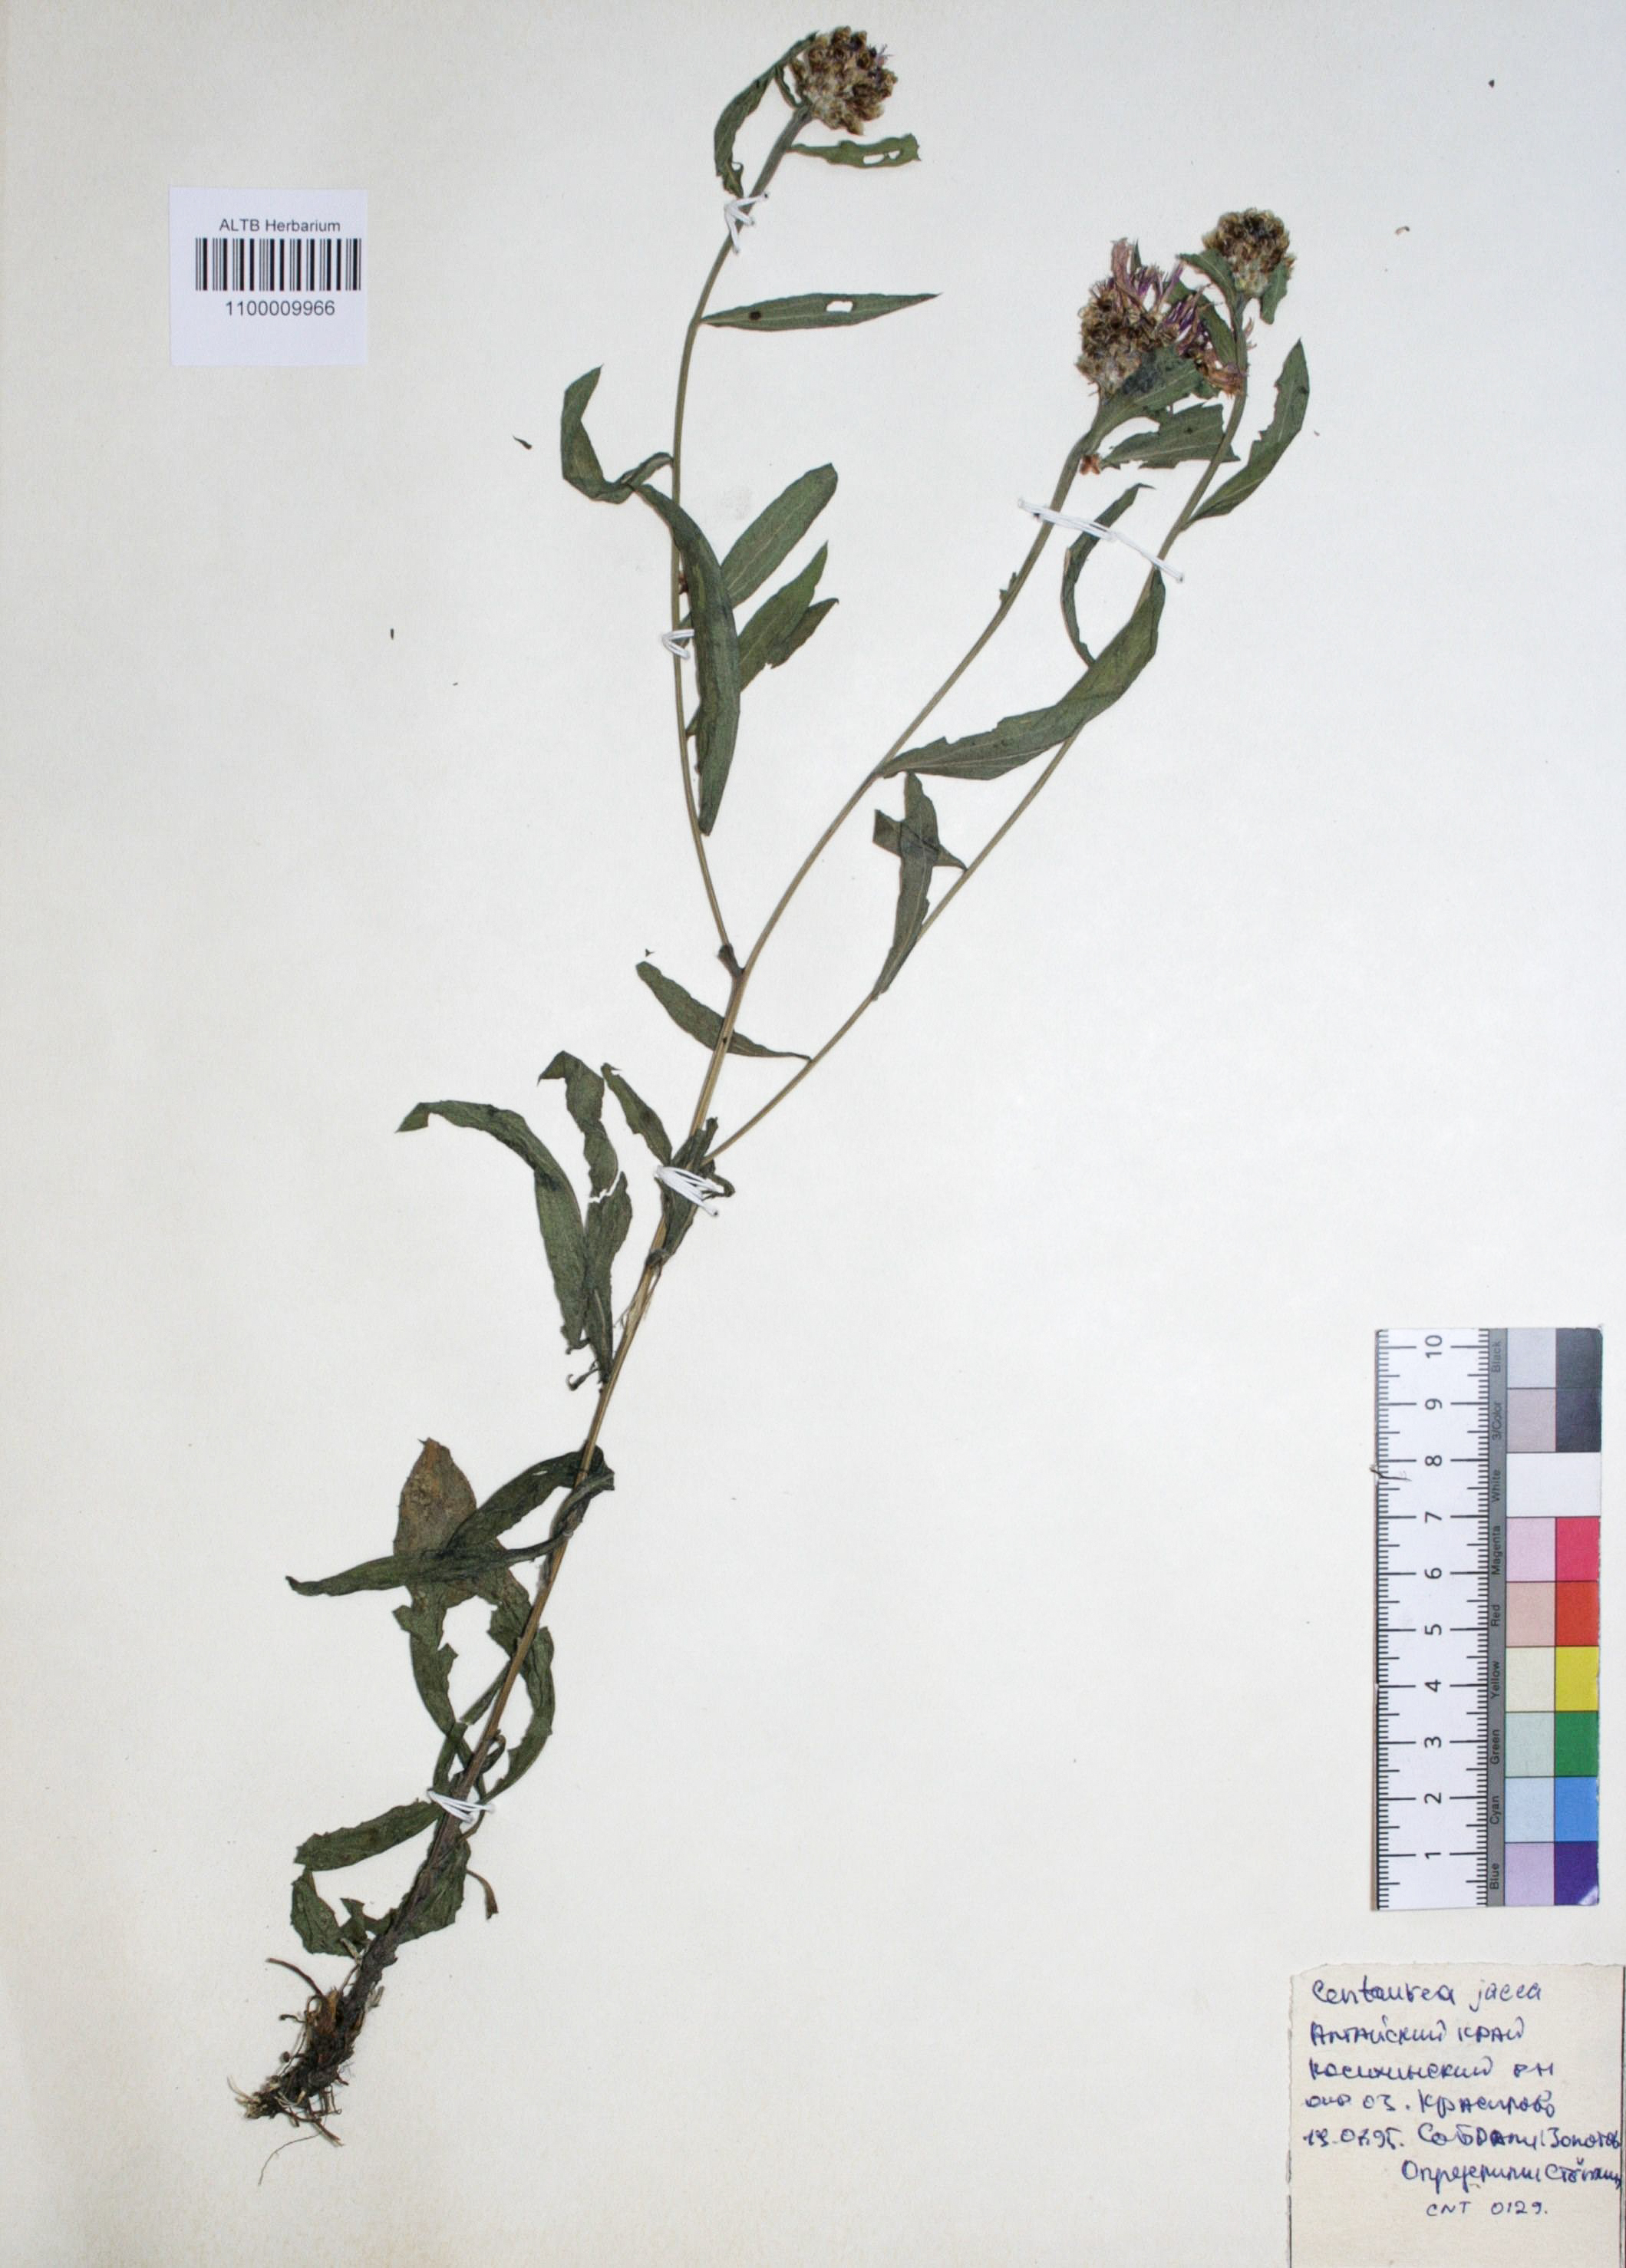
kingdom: Plantae
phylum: Tracheophyta
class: Magnoliopsida
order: Asterales
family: Asteraceae
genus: Centaurea
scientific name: Centaurea jacea
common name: Brown knapweed
